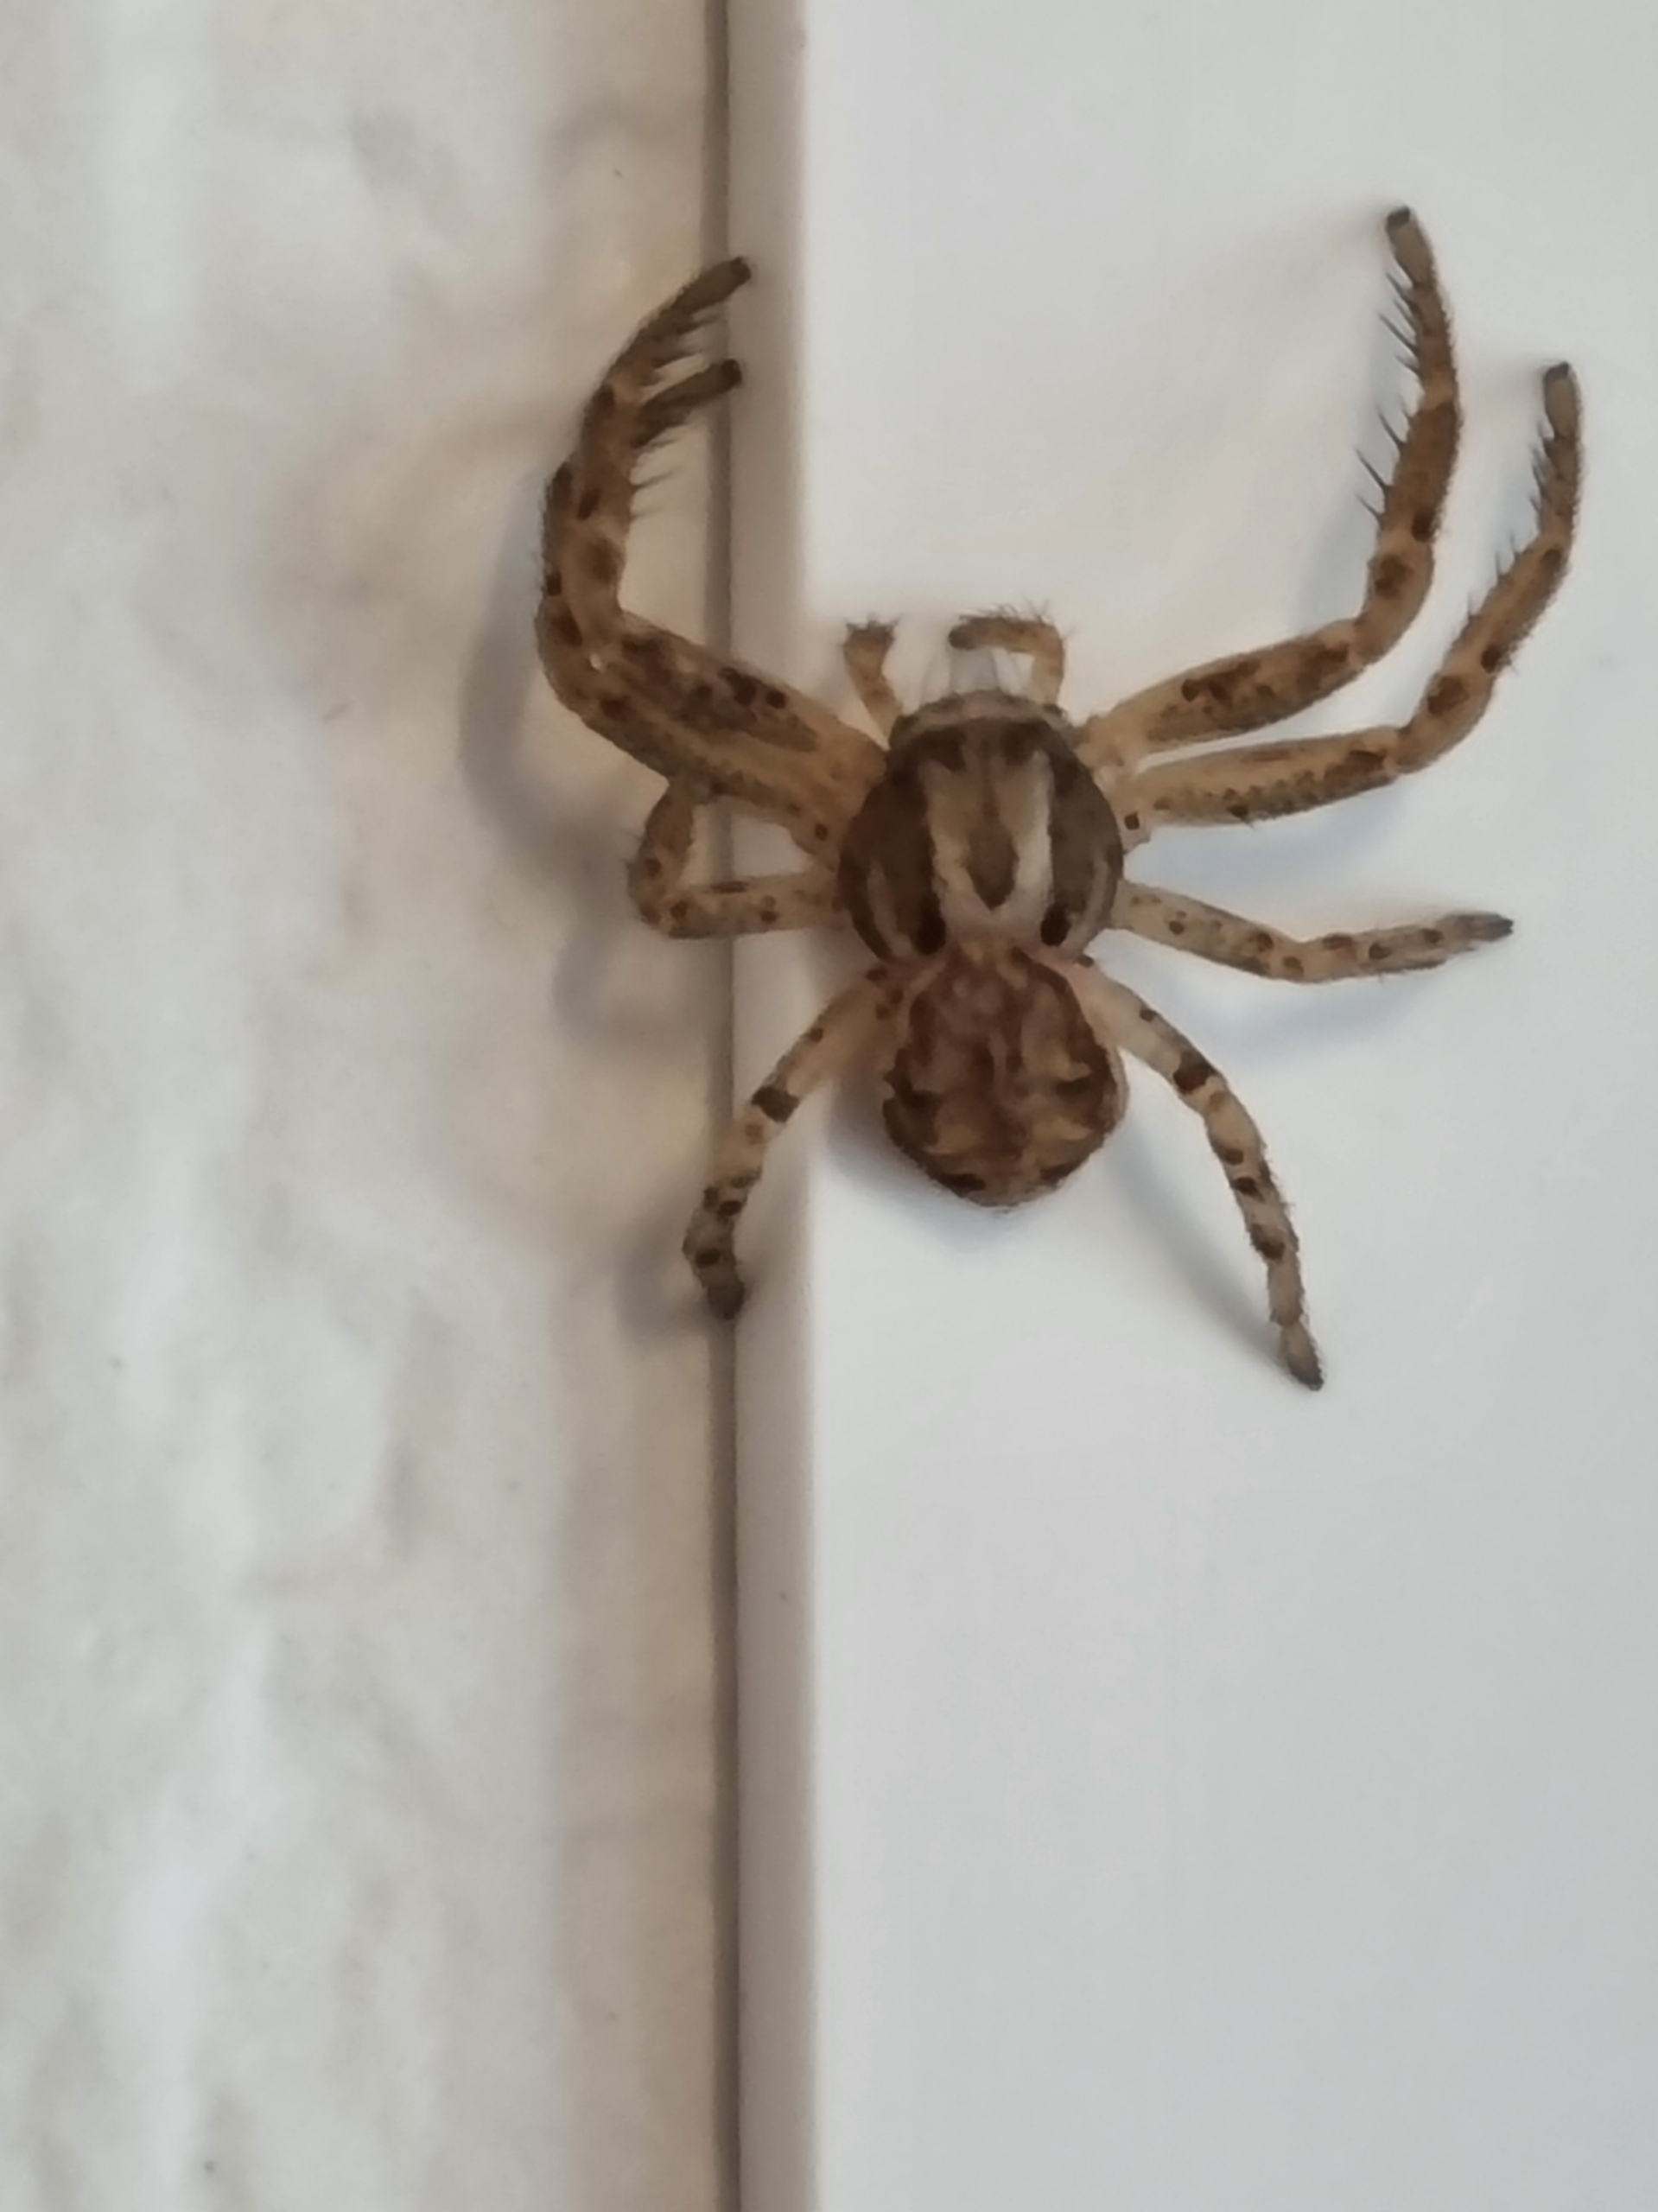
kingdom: Animalia
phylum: Arthropoda
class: Arachnida
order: Araneae
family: Thomisidae
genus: Xysticus
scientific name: Xysticus
